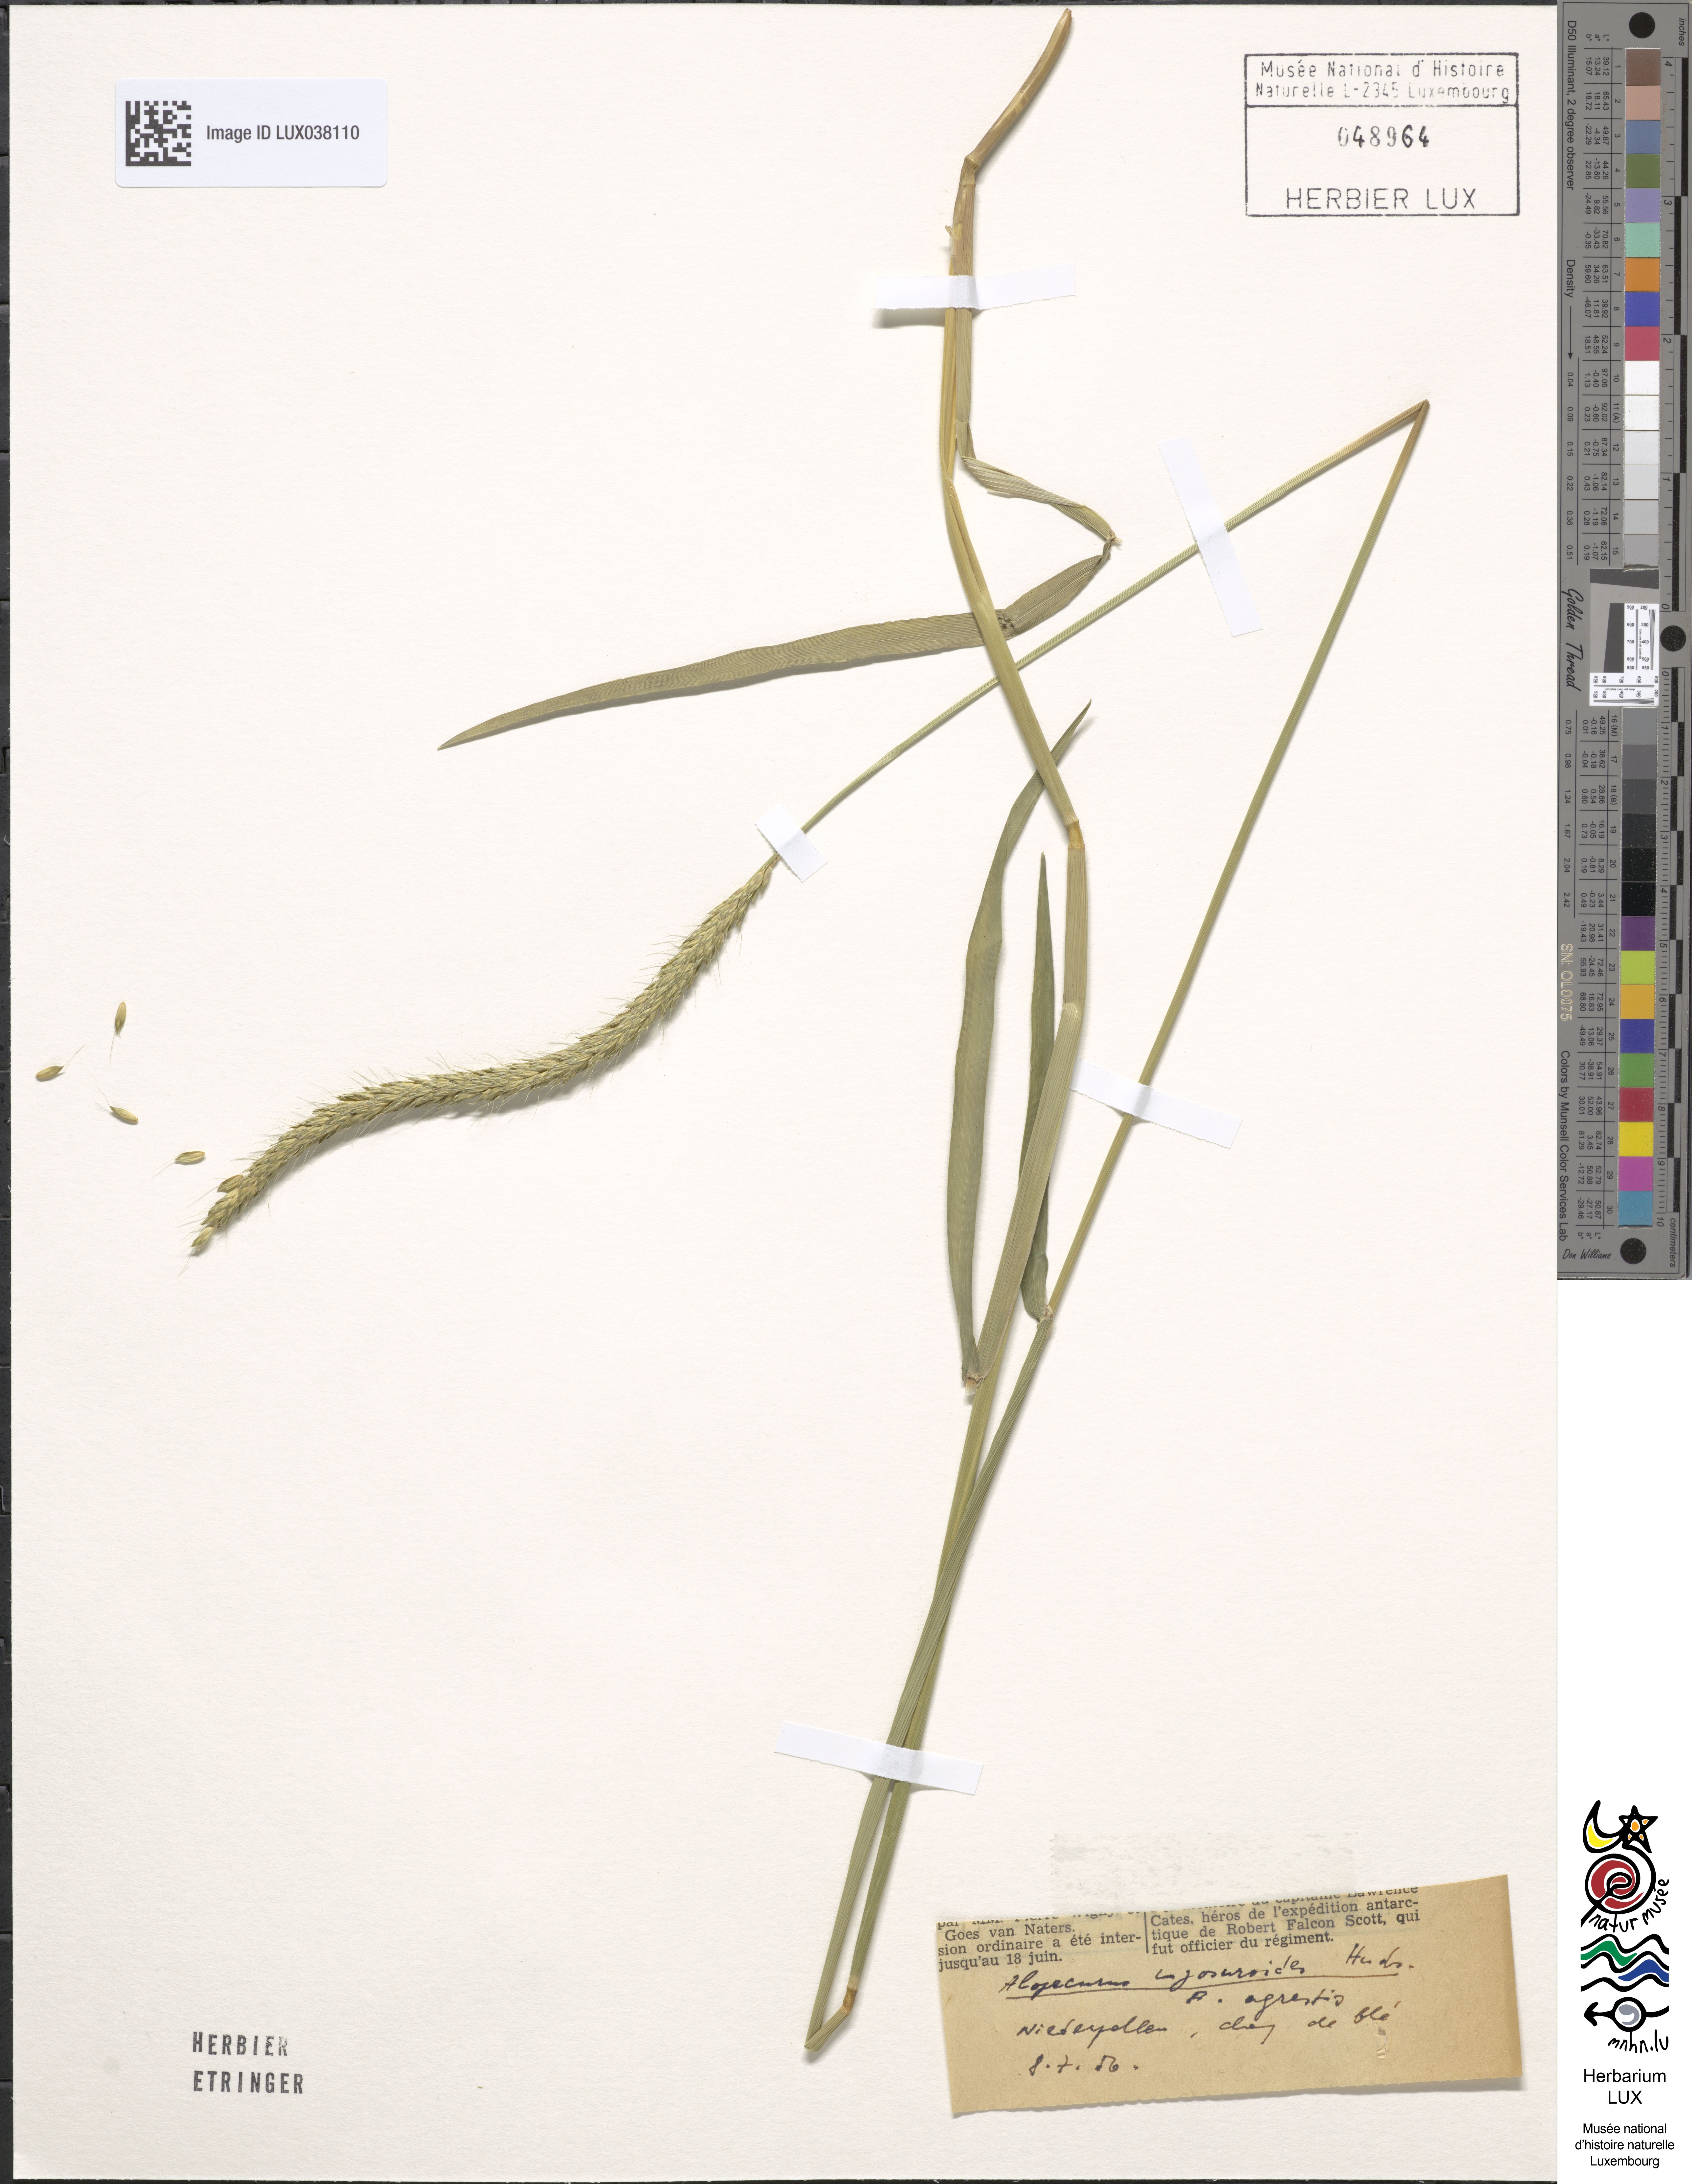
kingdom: Plantae
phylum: Tracheophyta
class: Liliopsida
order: Poales
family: Poaceae
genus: Alopecurus
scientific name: Alopecurus myosuroides
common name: Black-grass
